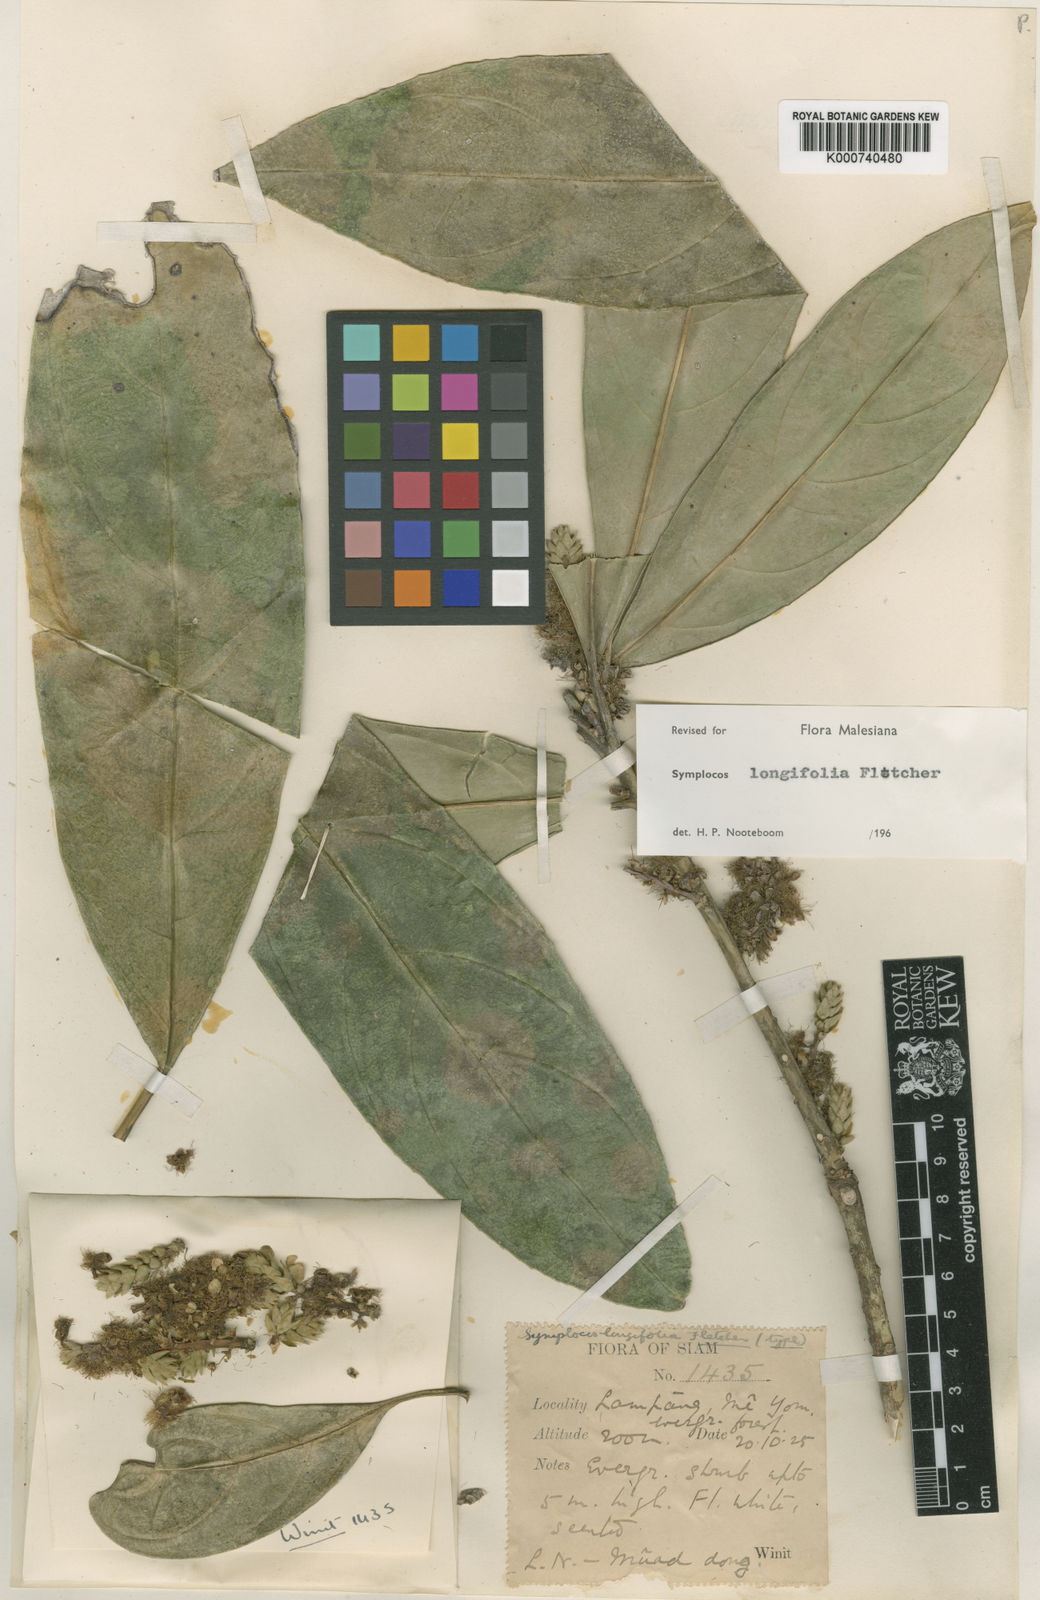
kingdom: Plantae
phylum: Tracheophyta
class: Magnoliopsida
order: Ericales
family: Symplocaceae
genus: Symplocos
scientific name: Symplocos
